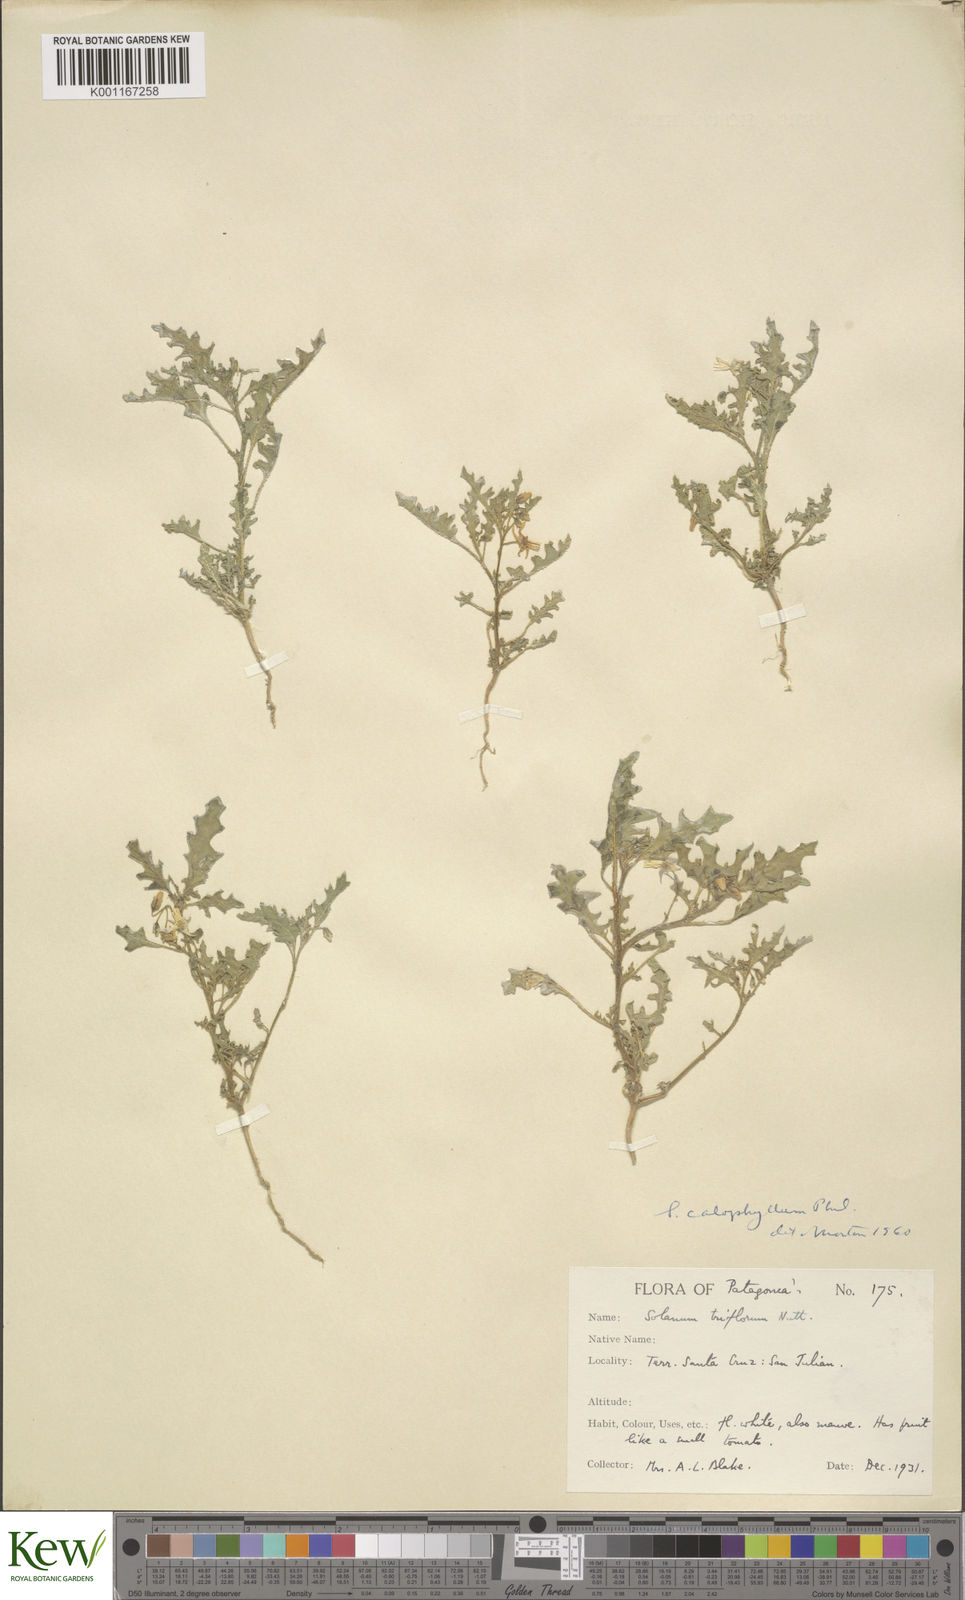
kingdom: Plantae
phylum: Tracheophyta
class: Magnoliopsida
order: Solanales
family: Solanaceae
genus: Solanum
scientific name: Solanum triflorum
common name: Small nightshade
